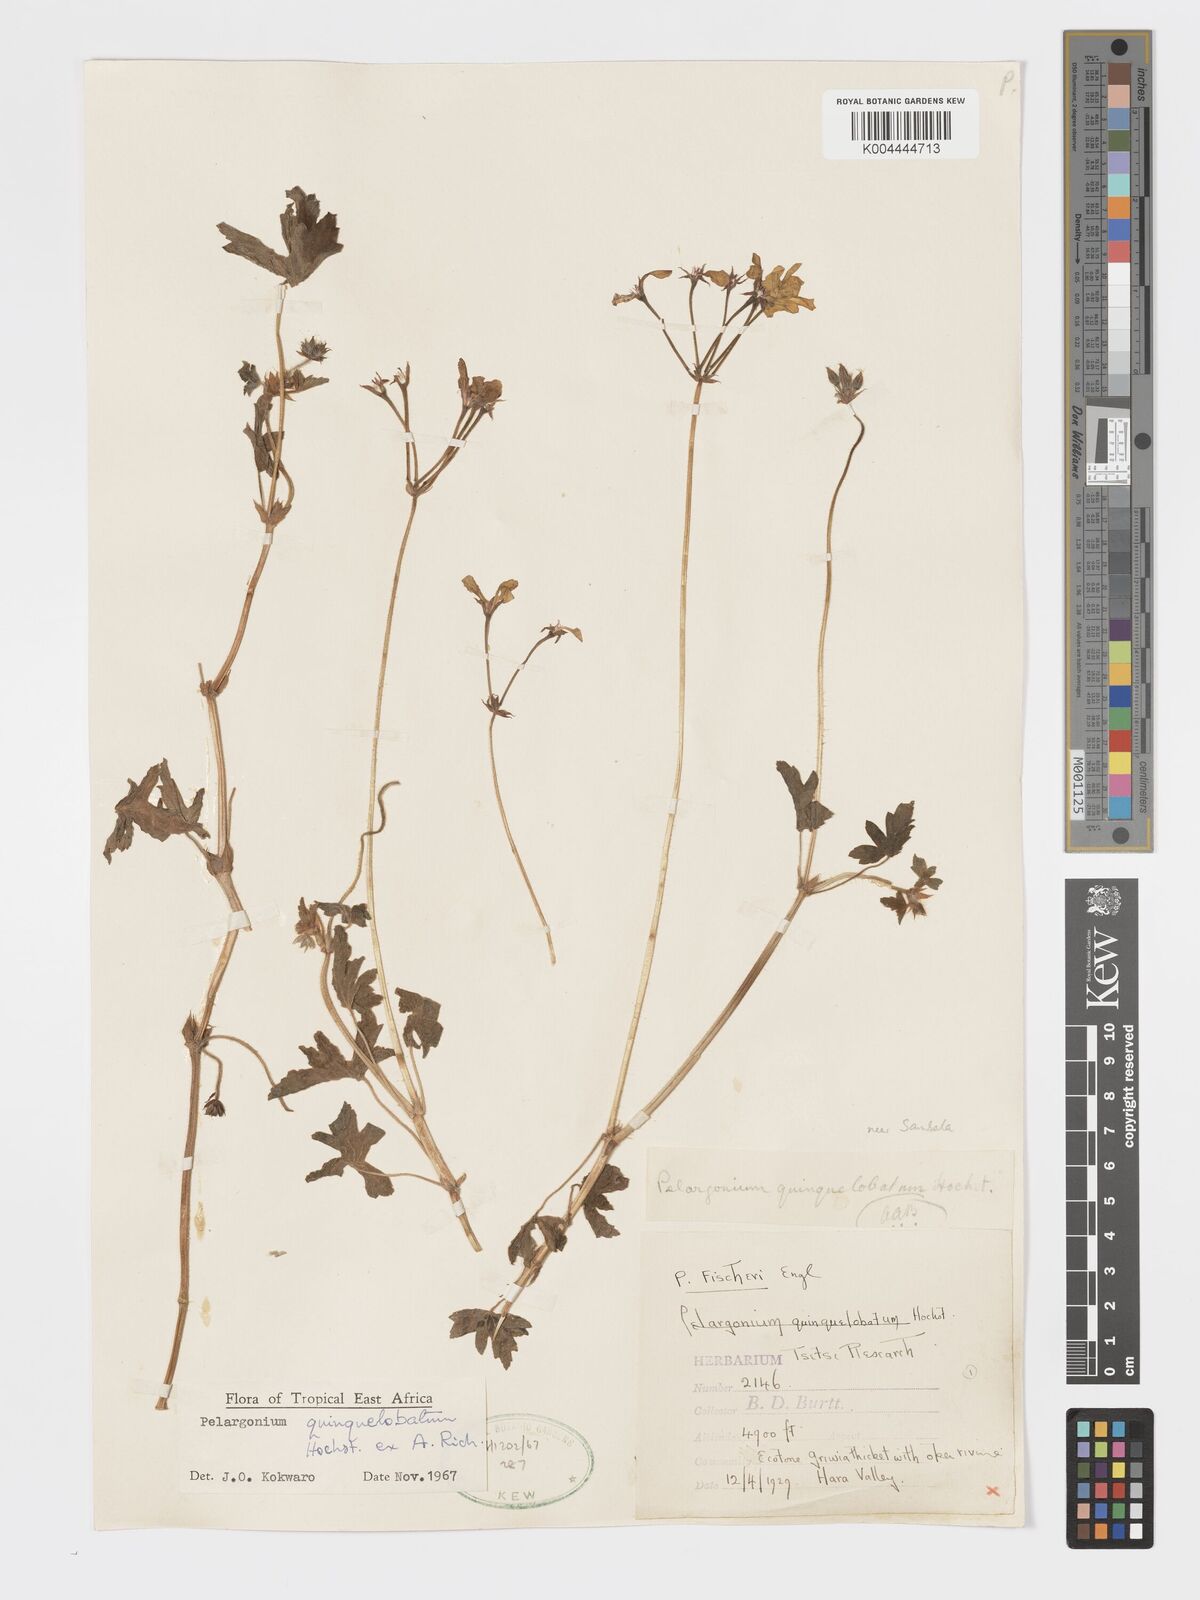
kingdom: Plantae
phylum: Tracheophyta
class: Magnoliopsida
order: Geraniales
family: Geraniaceae
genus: Pelargonium
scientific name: Pelargonium quinquelobatum
